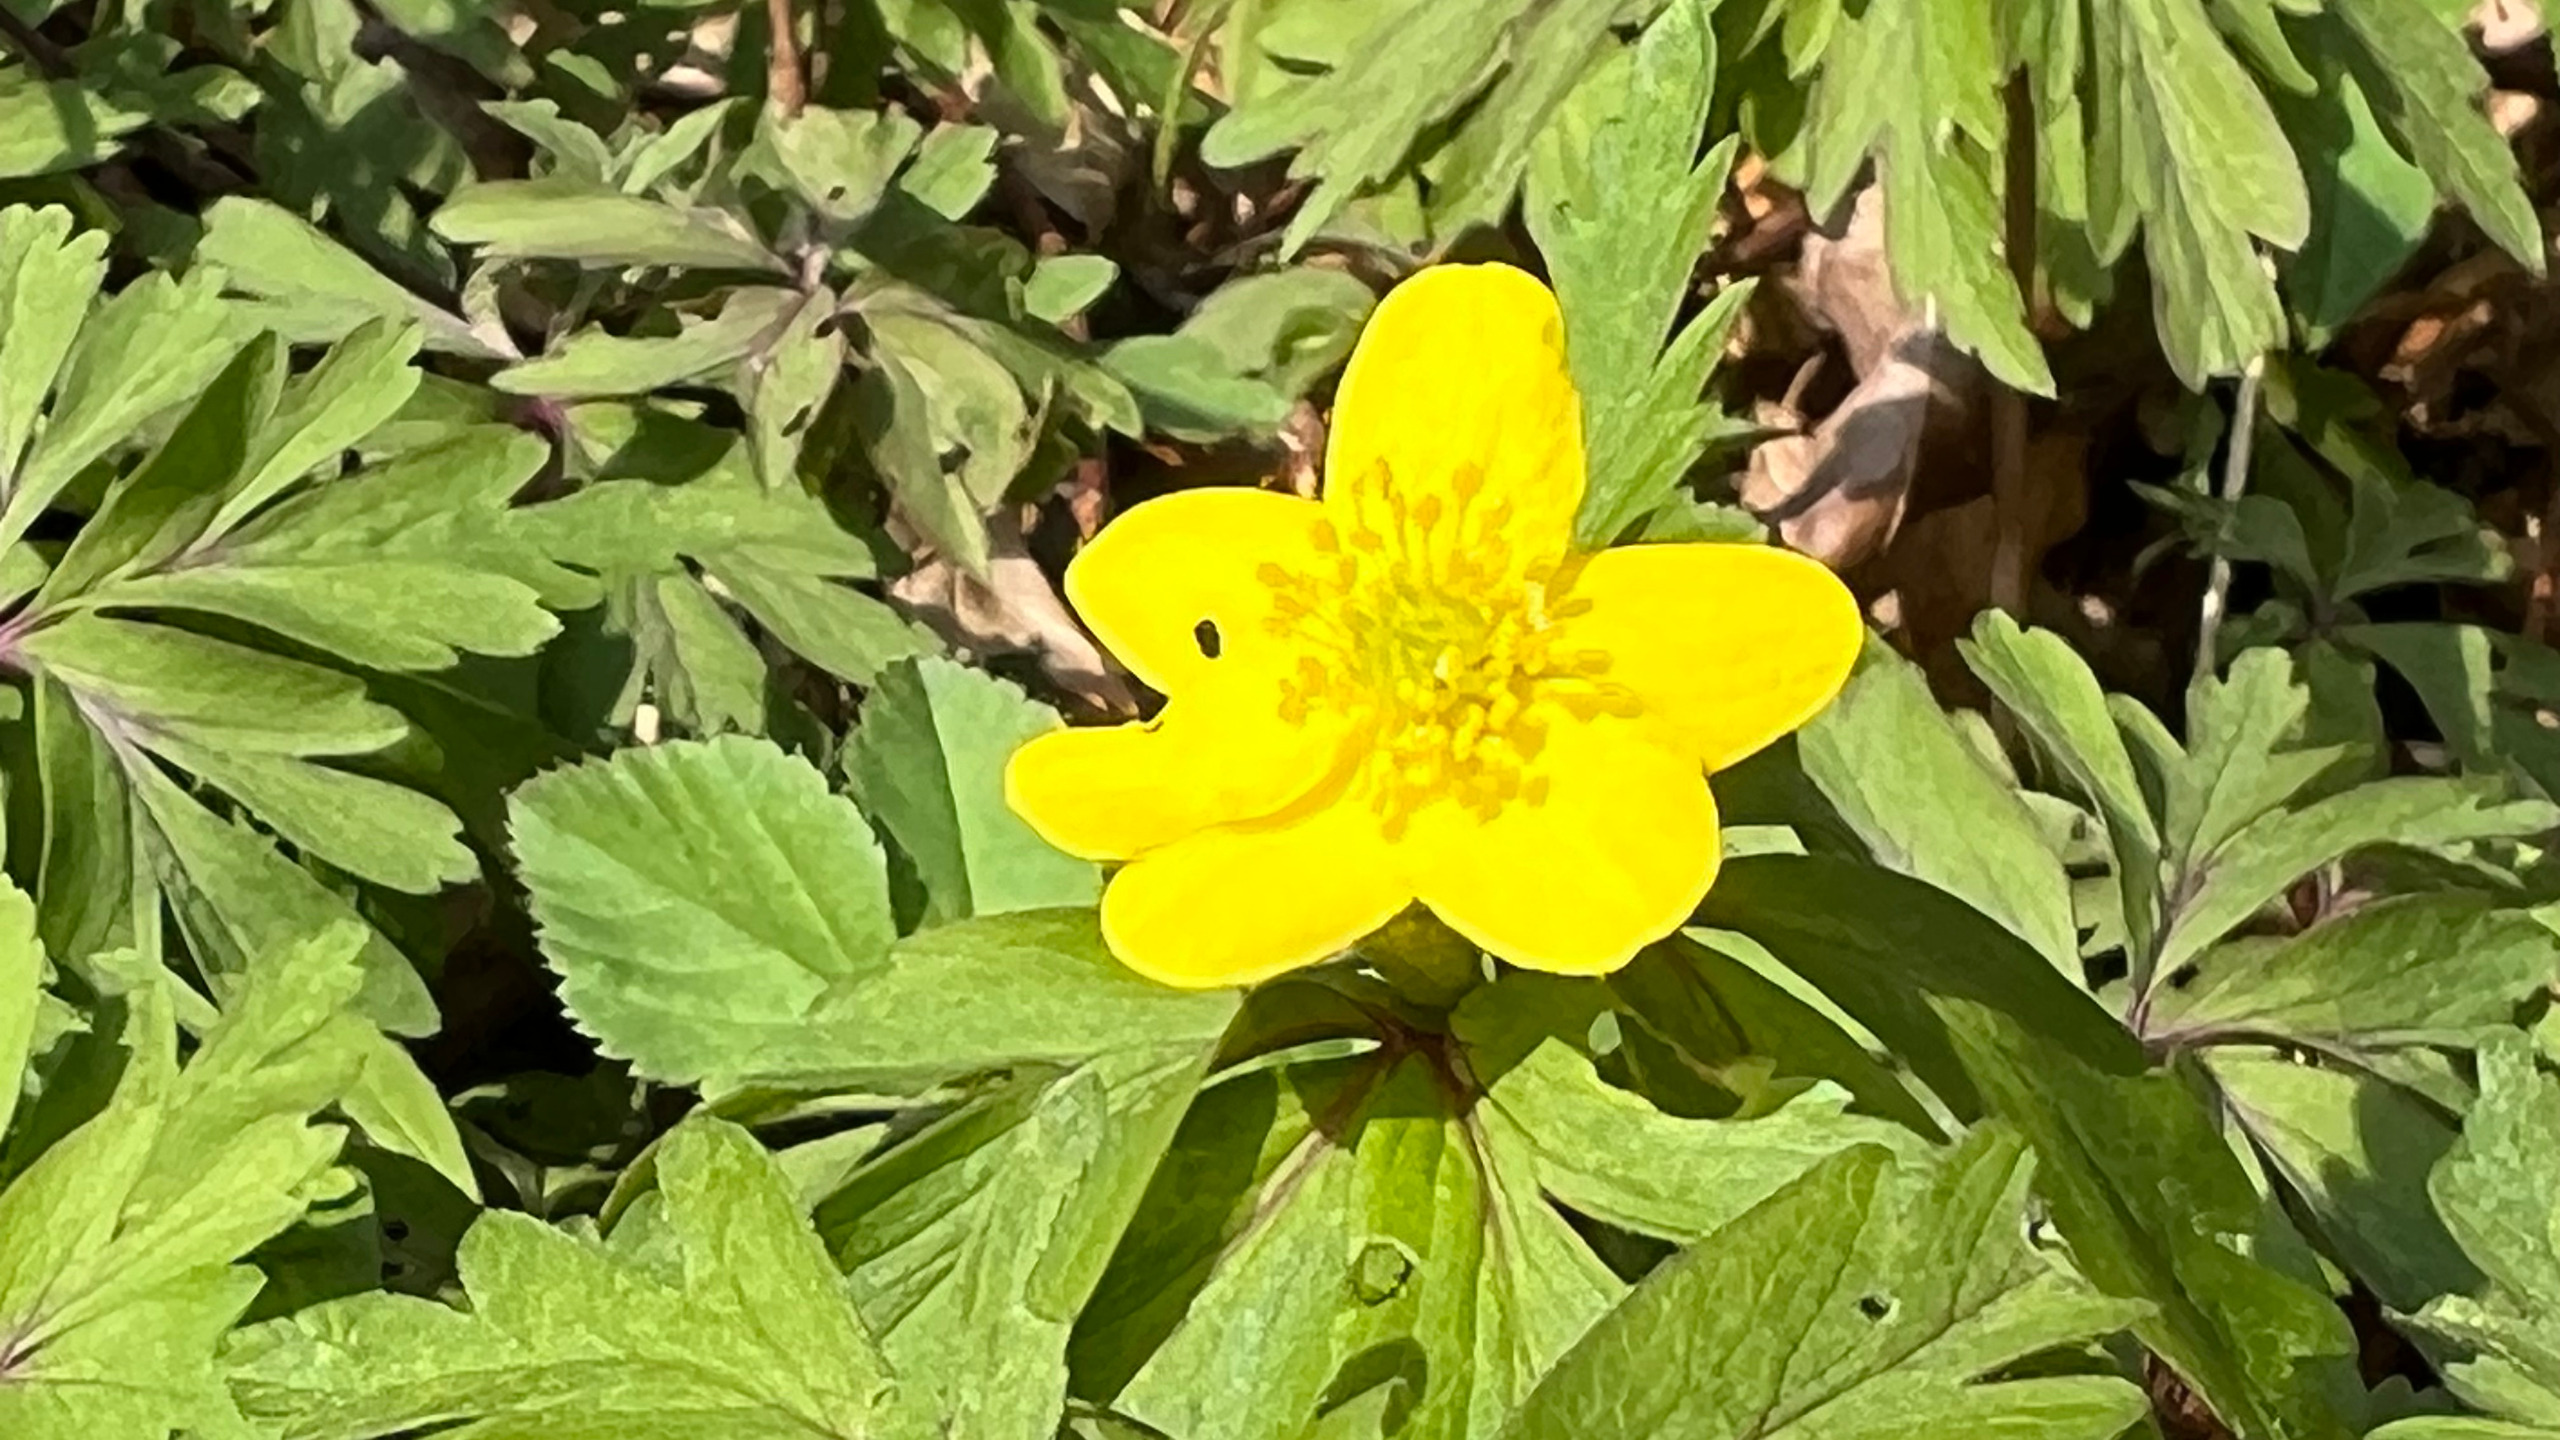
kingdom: Plantae
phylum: Tracheophyta
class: Magnoliopsida
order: Ranunculales
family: Ranunculaceae
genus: Anemone
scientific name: Anemone ranunculoides
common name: Gul anemone
